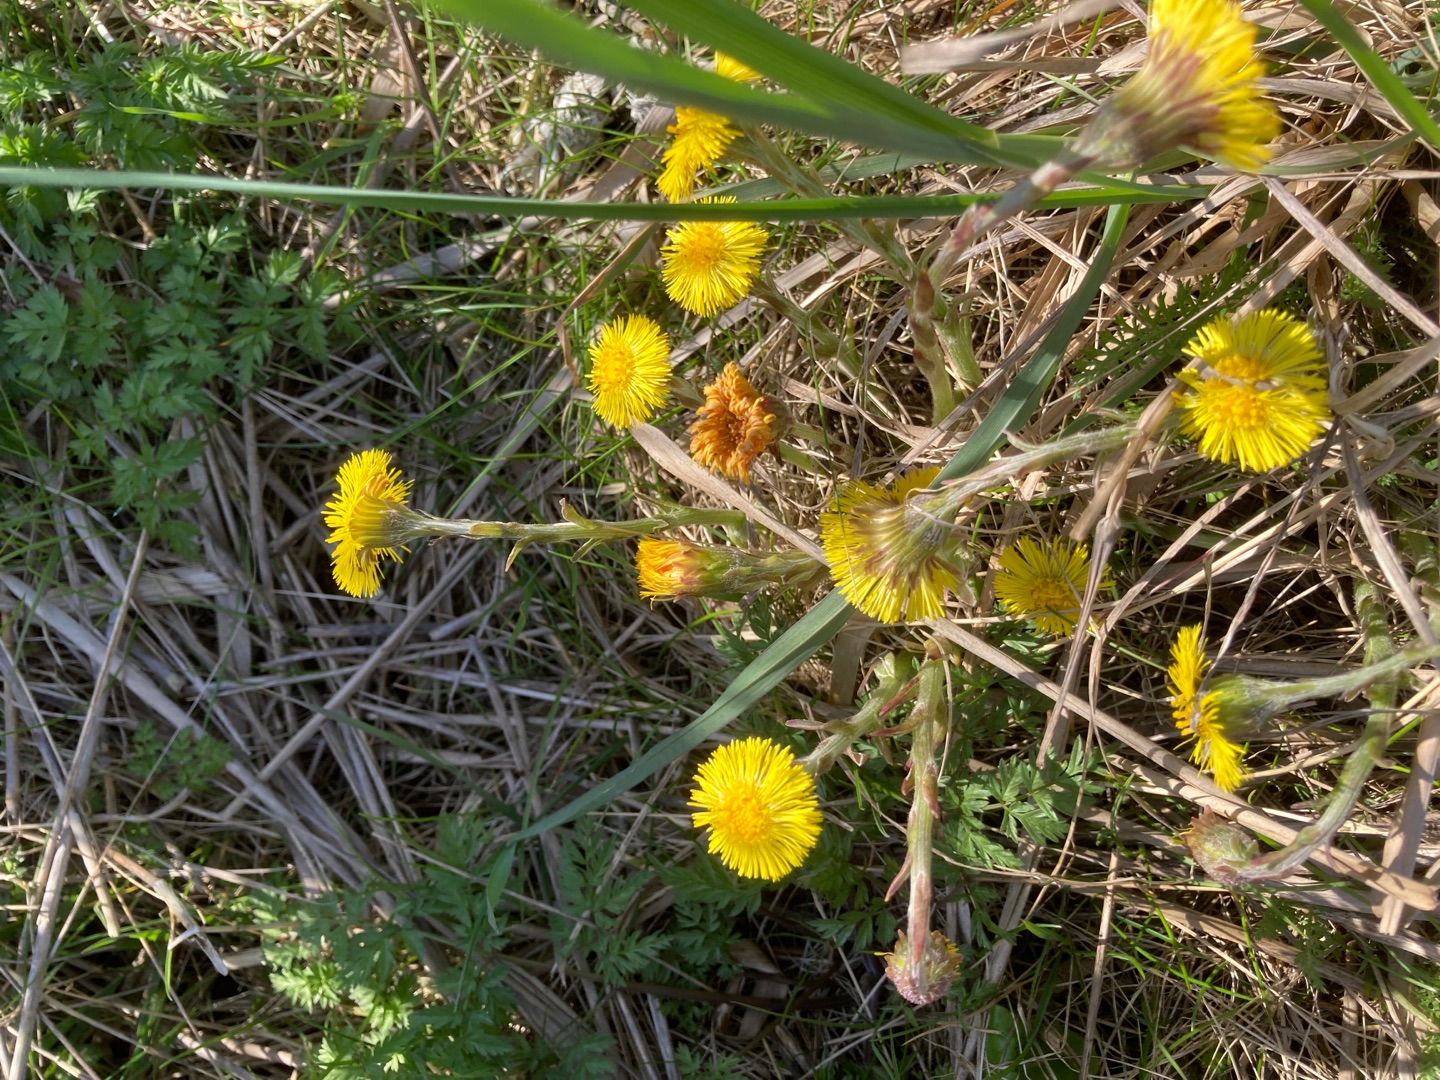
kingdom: Plantae
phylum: Tracheophyta
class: Magnoliopsida
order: Asterales
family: Asteraceae
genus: Tussilago
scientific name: Tussilago farfara
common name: Følfod
